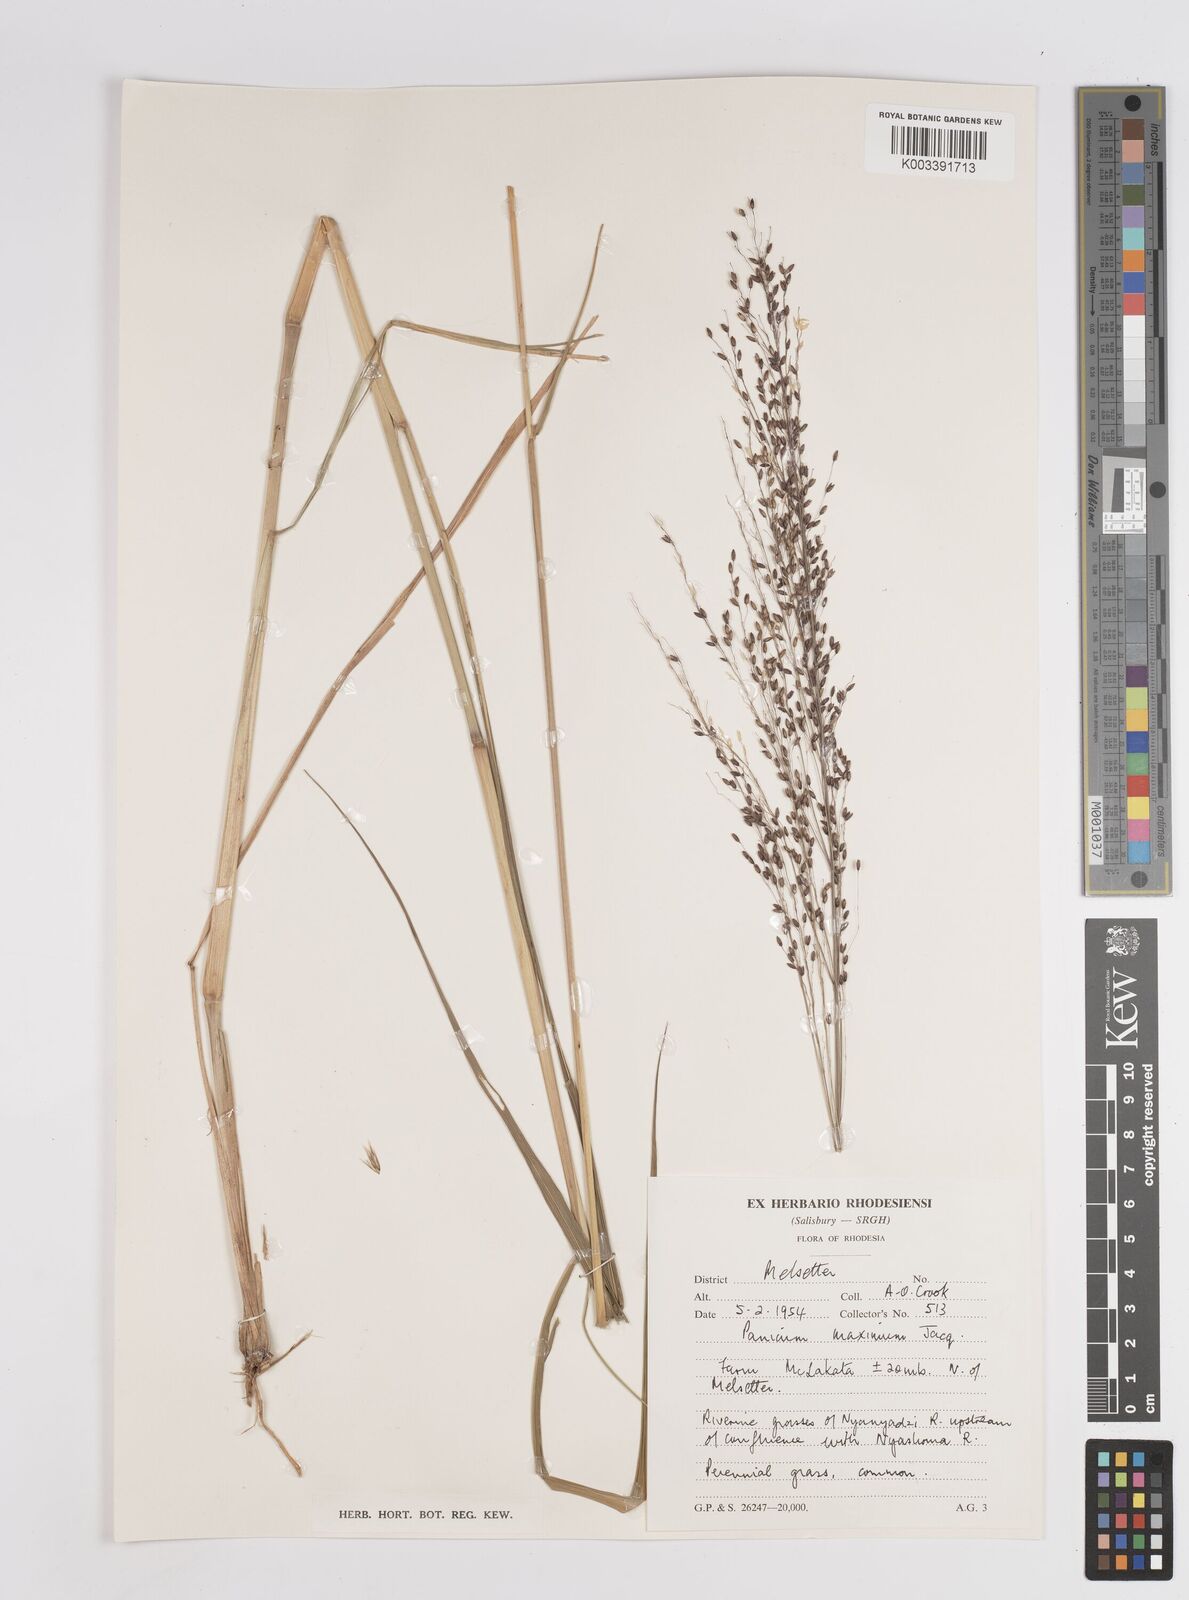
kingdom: Plantae
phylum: Tracheophyta
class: Liliopsida
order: Poales
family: Poaceae
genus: Megathyrsus
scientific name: Megathyrsus maximus
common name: Guineagrass
